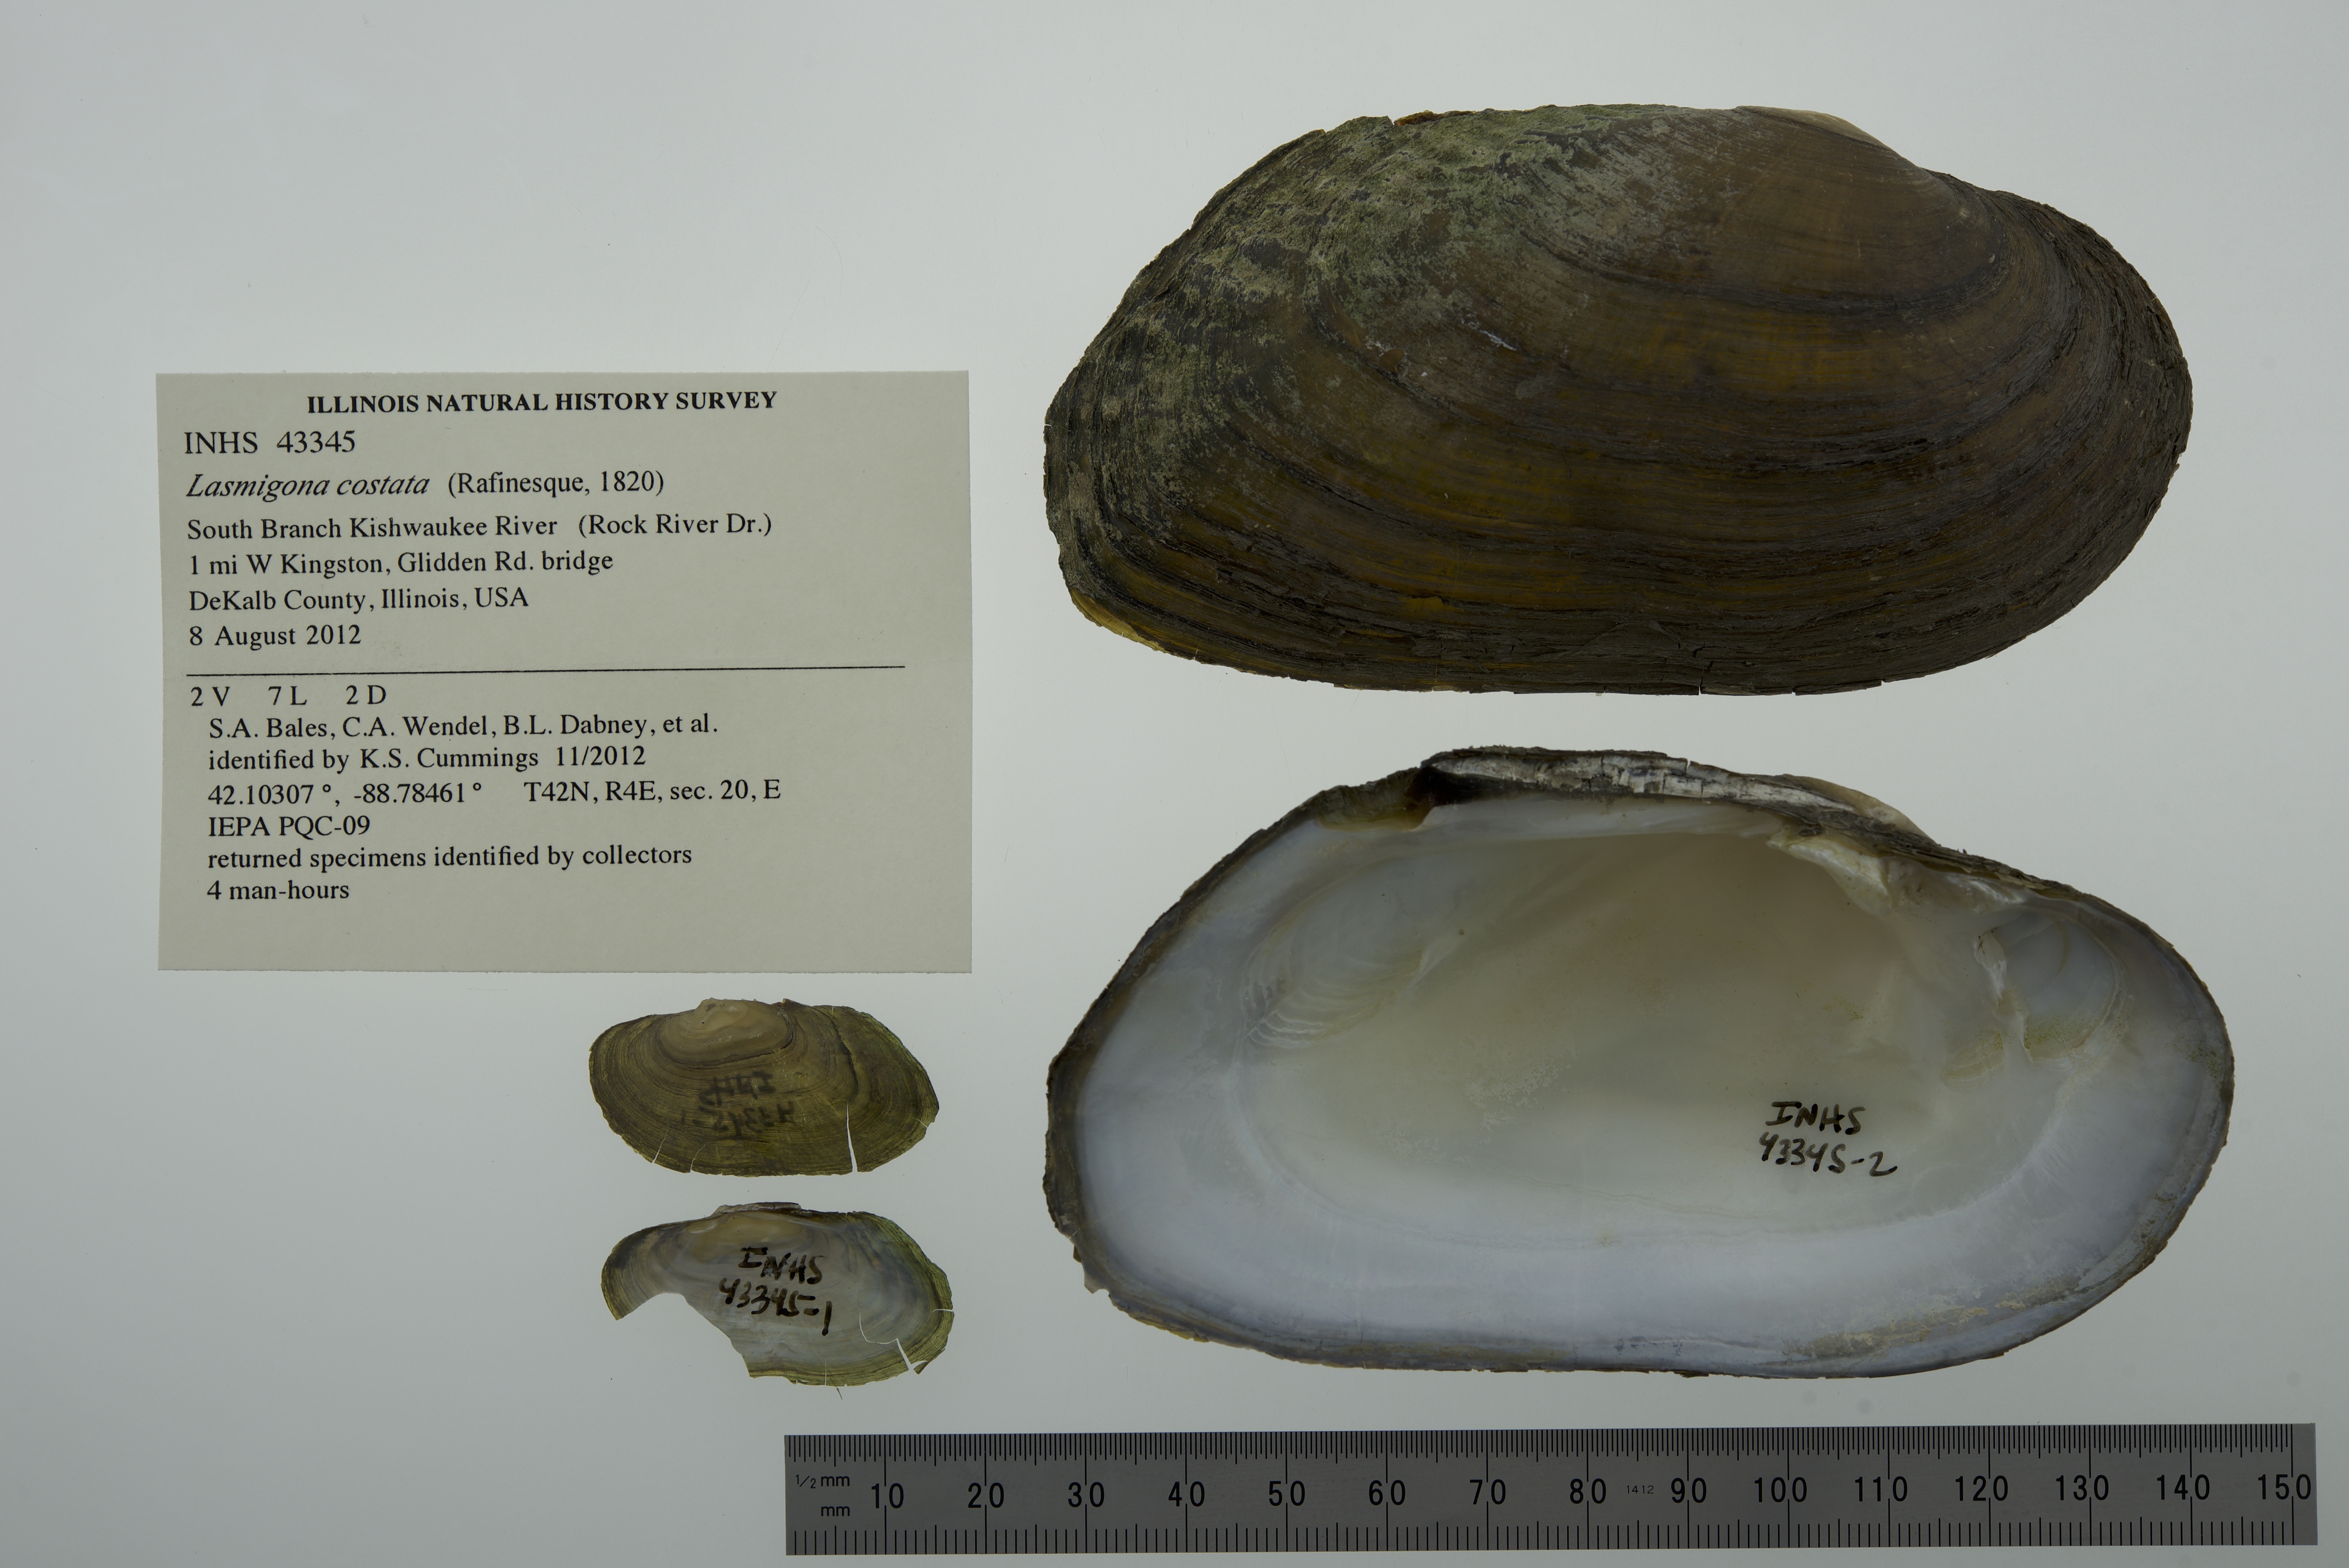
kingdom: Animalia
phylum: Mollusca
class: Bivalvia
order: Unionida
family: Unionidae
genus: Lasmigona
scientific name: Lasmigona costata
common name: Flutedshell
